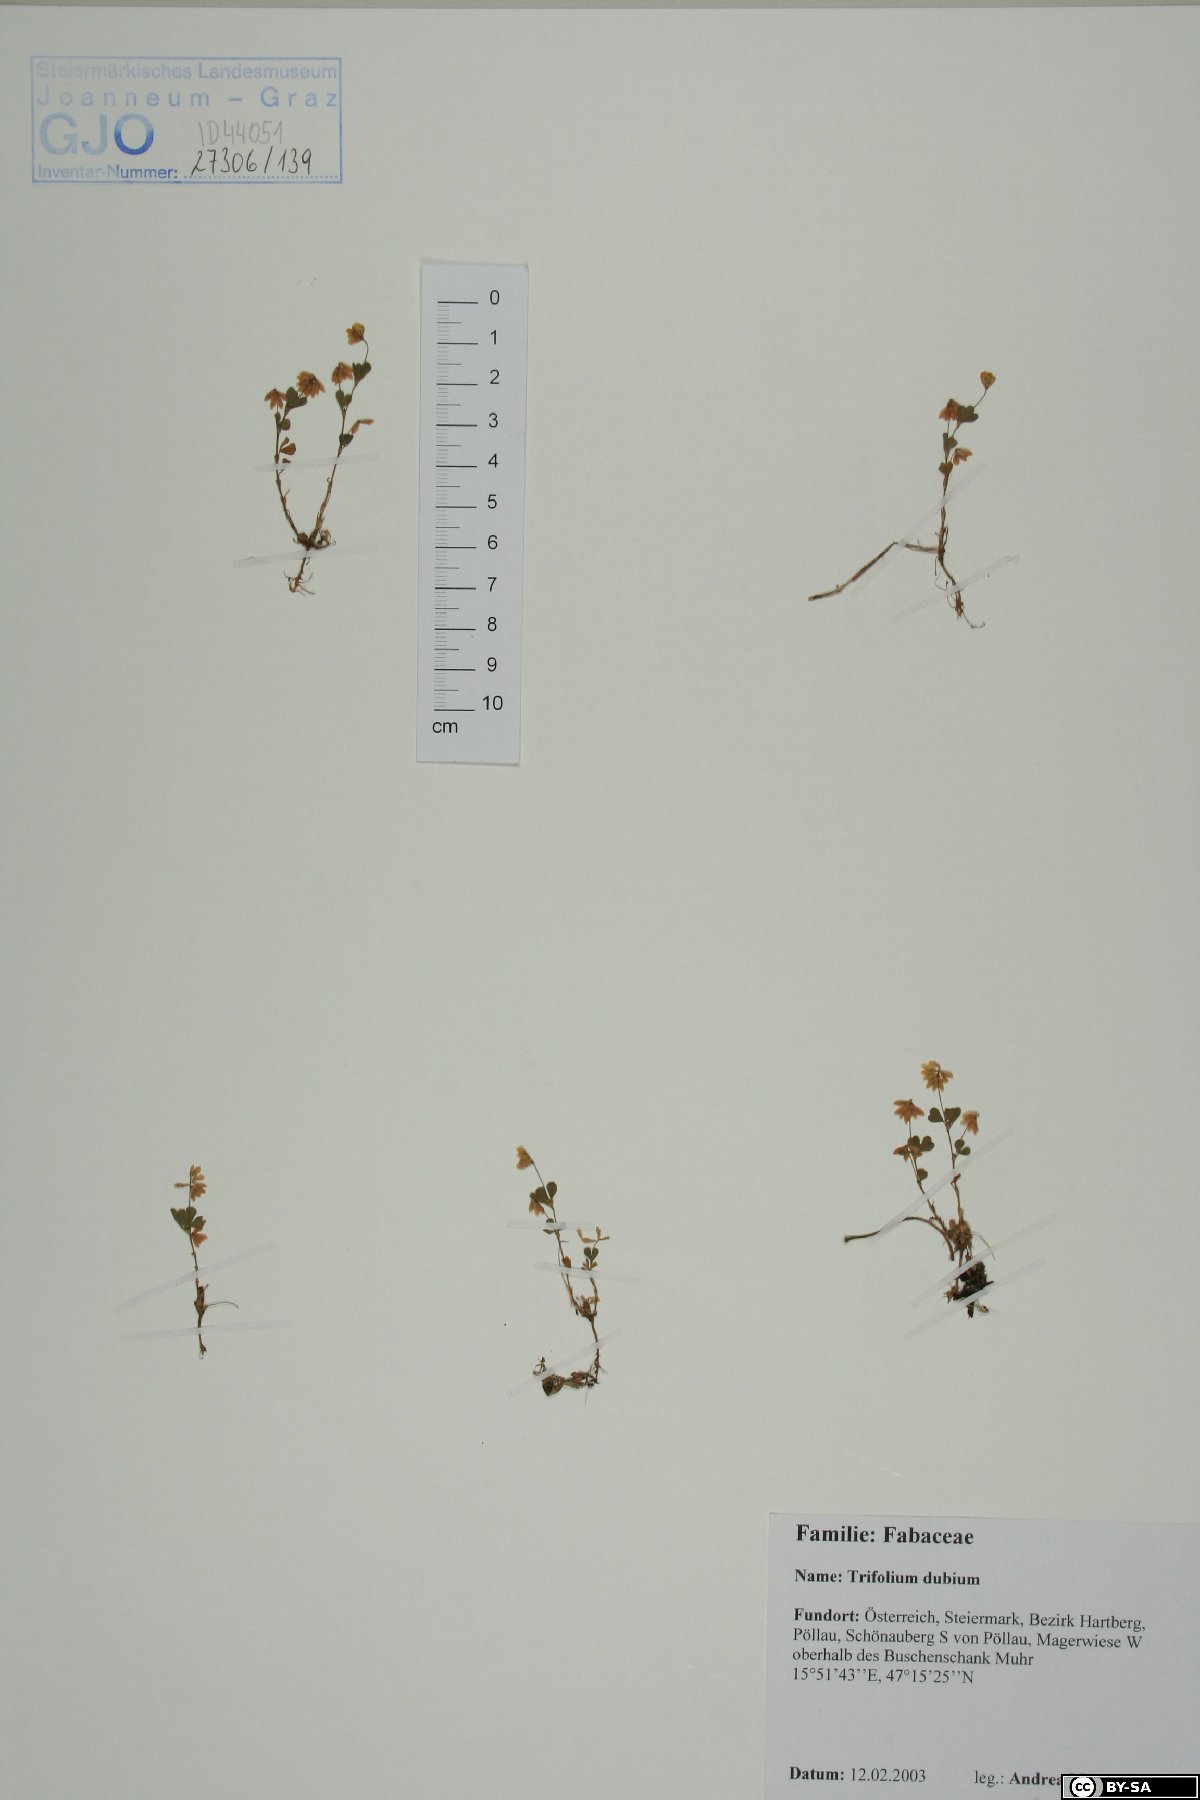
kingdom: Plantae
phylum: Tracheophyta
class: Magnoliopsida
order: Fabales
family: Fabaceae
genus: Trifolium
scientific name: Trifolium dubium
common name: Suckling clover
